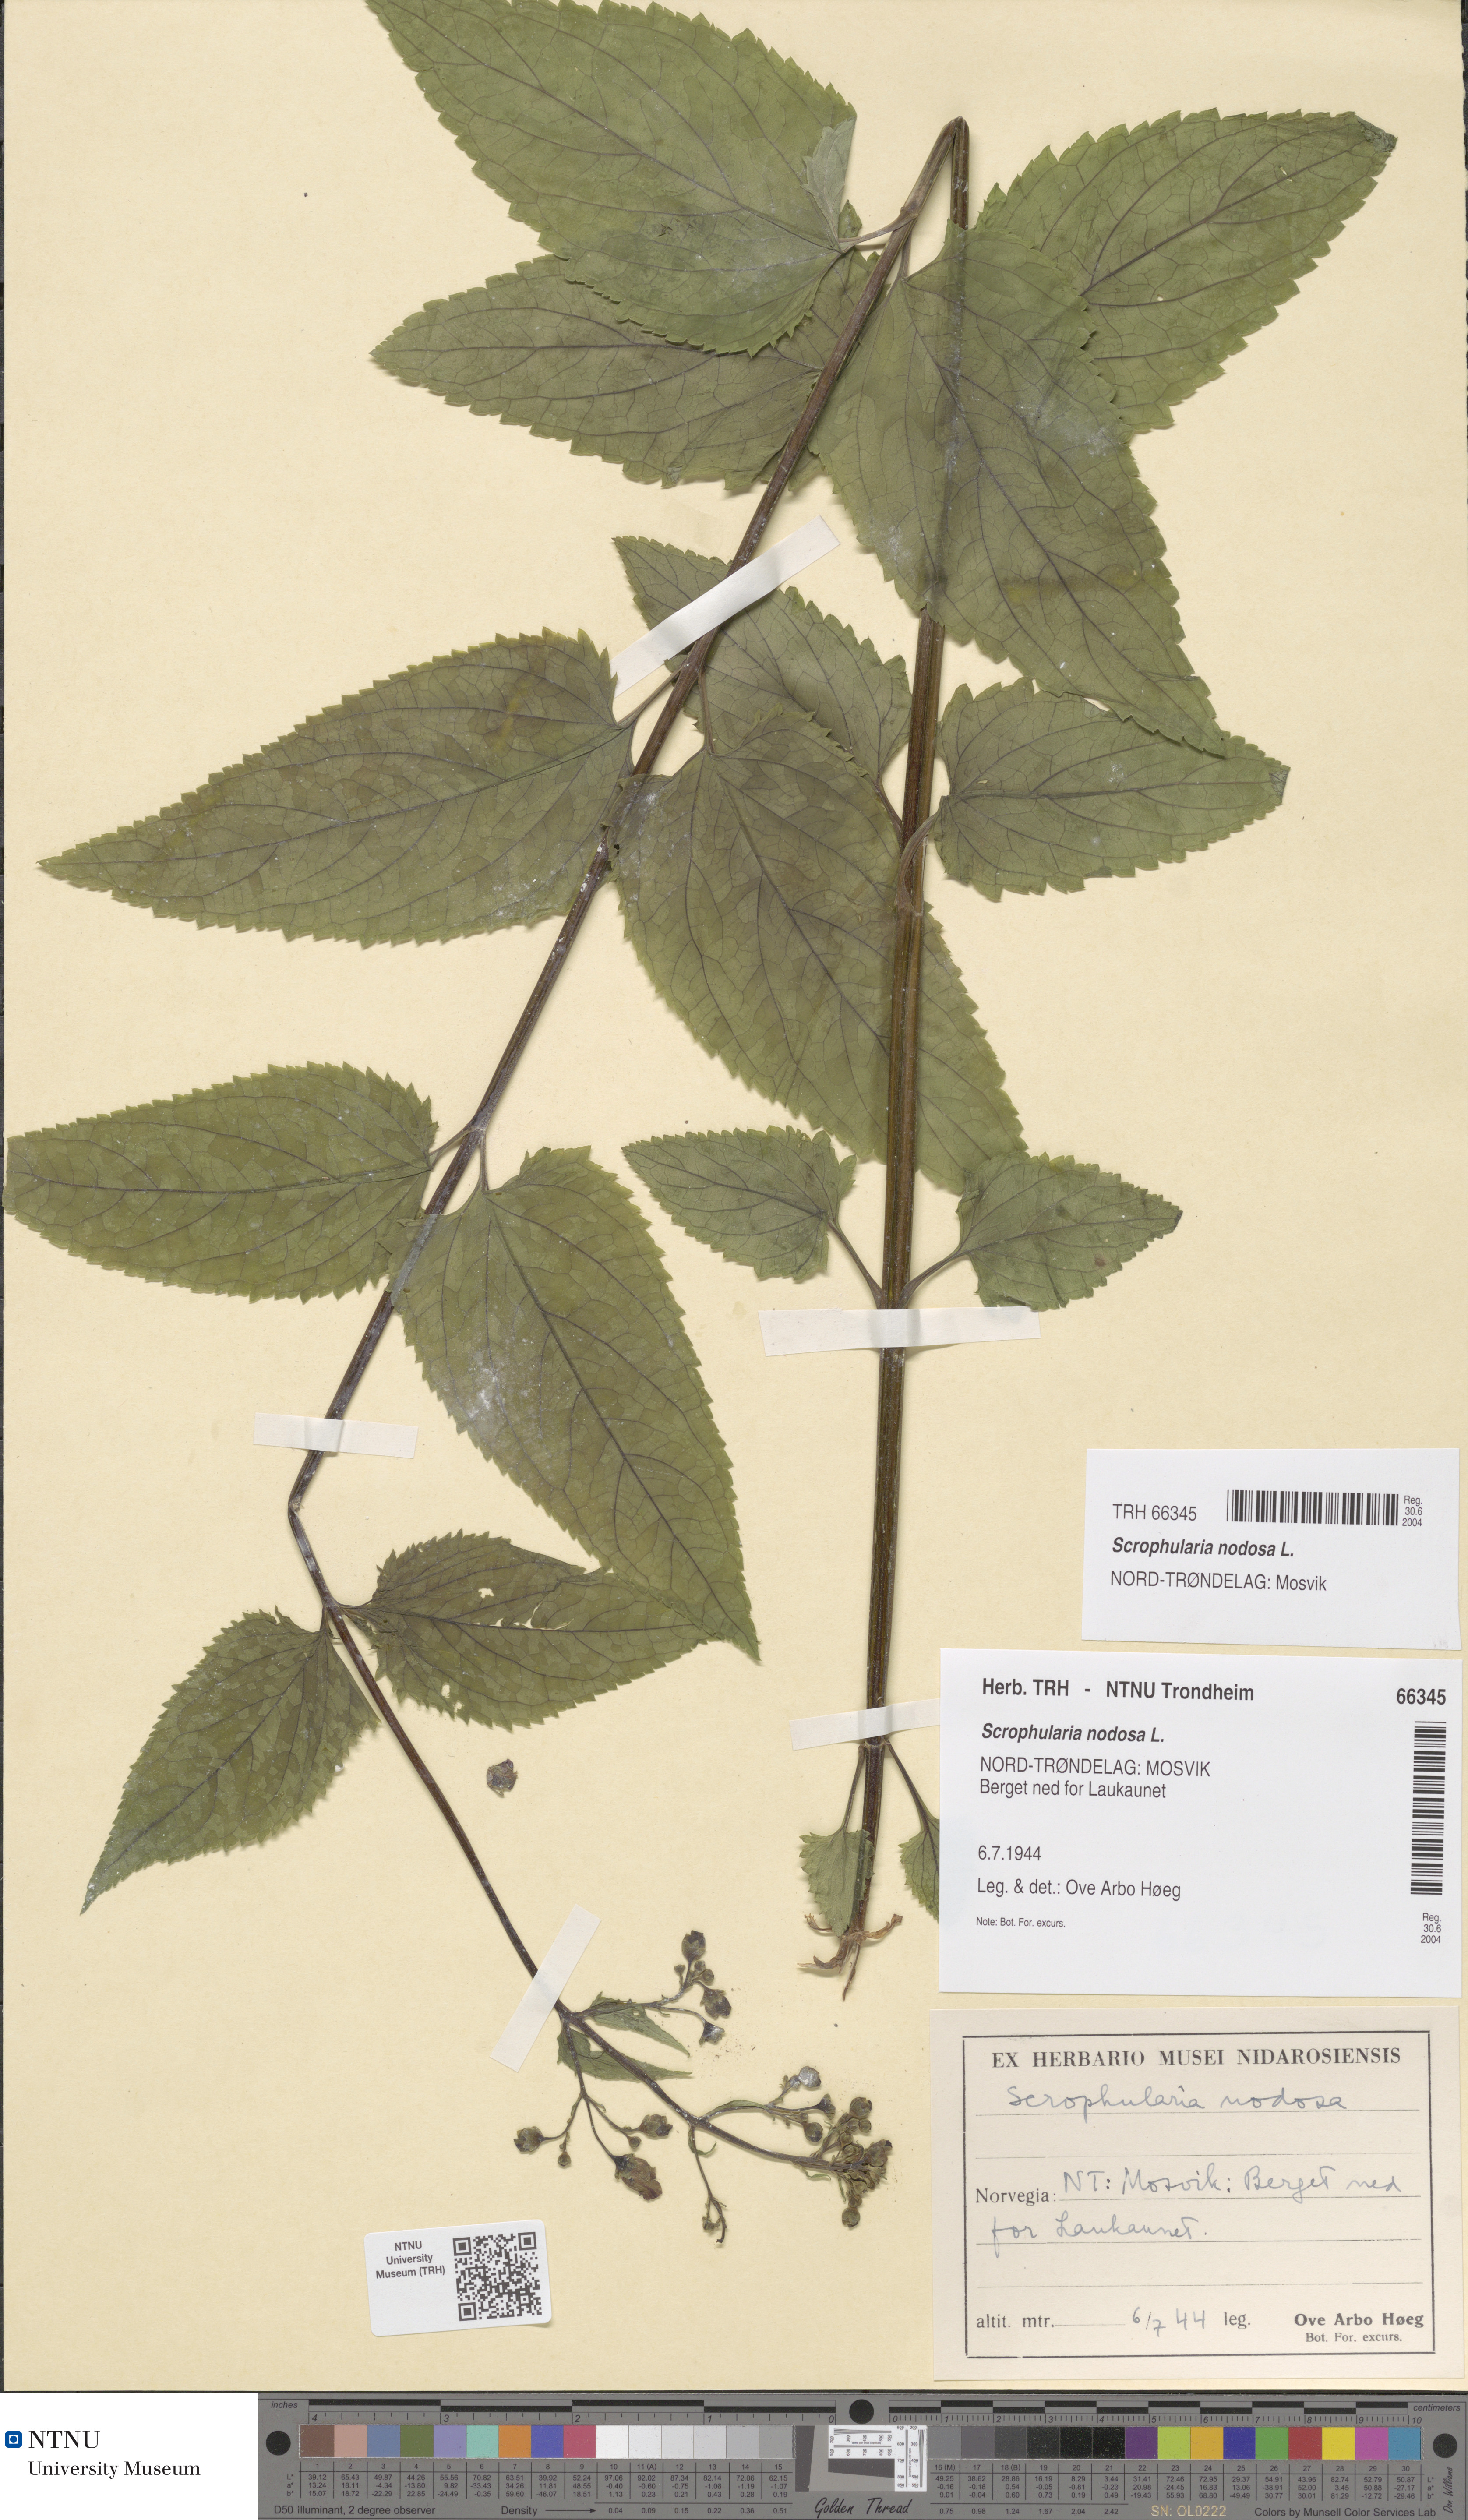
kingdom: Plantae
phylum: Tracheophyta
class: Magnoliopsida
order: Lamiales
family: Scrophulariaceae
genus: Scrophularia
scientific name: Scrophularia nodosa
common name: Common figwort
